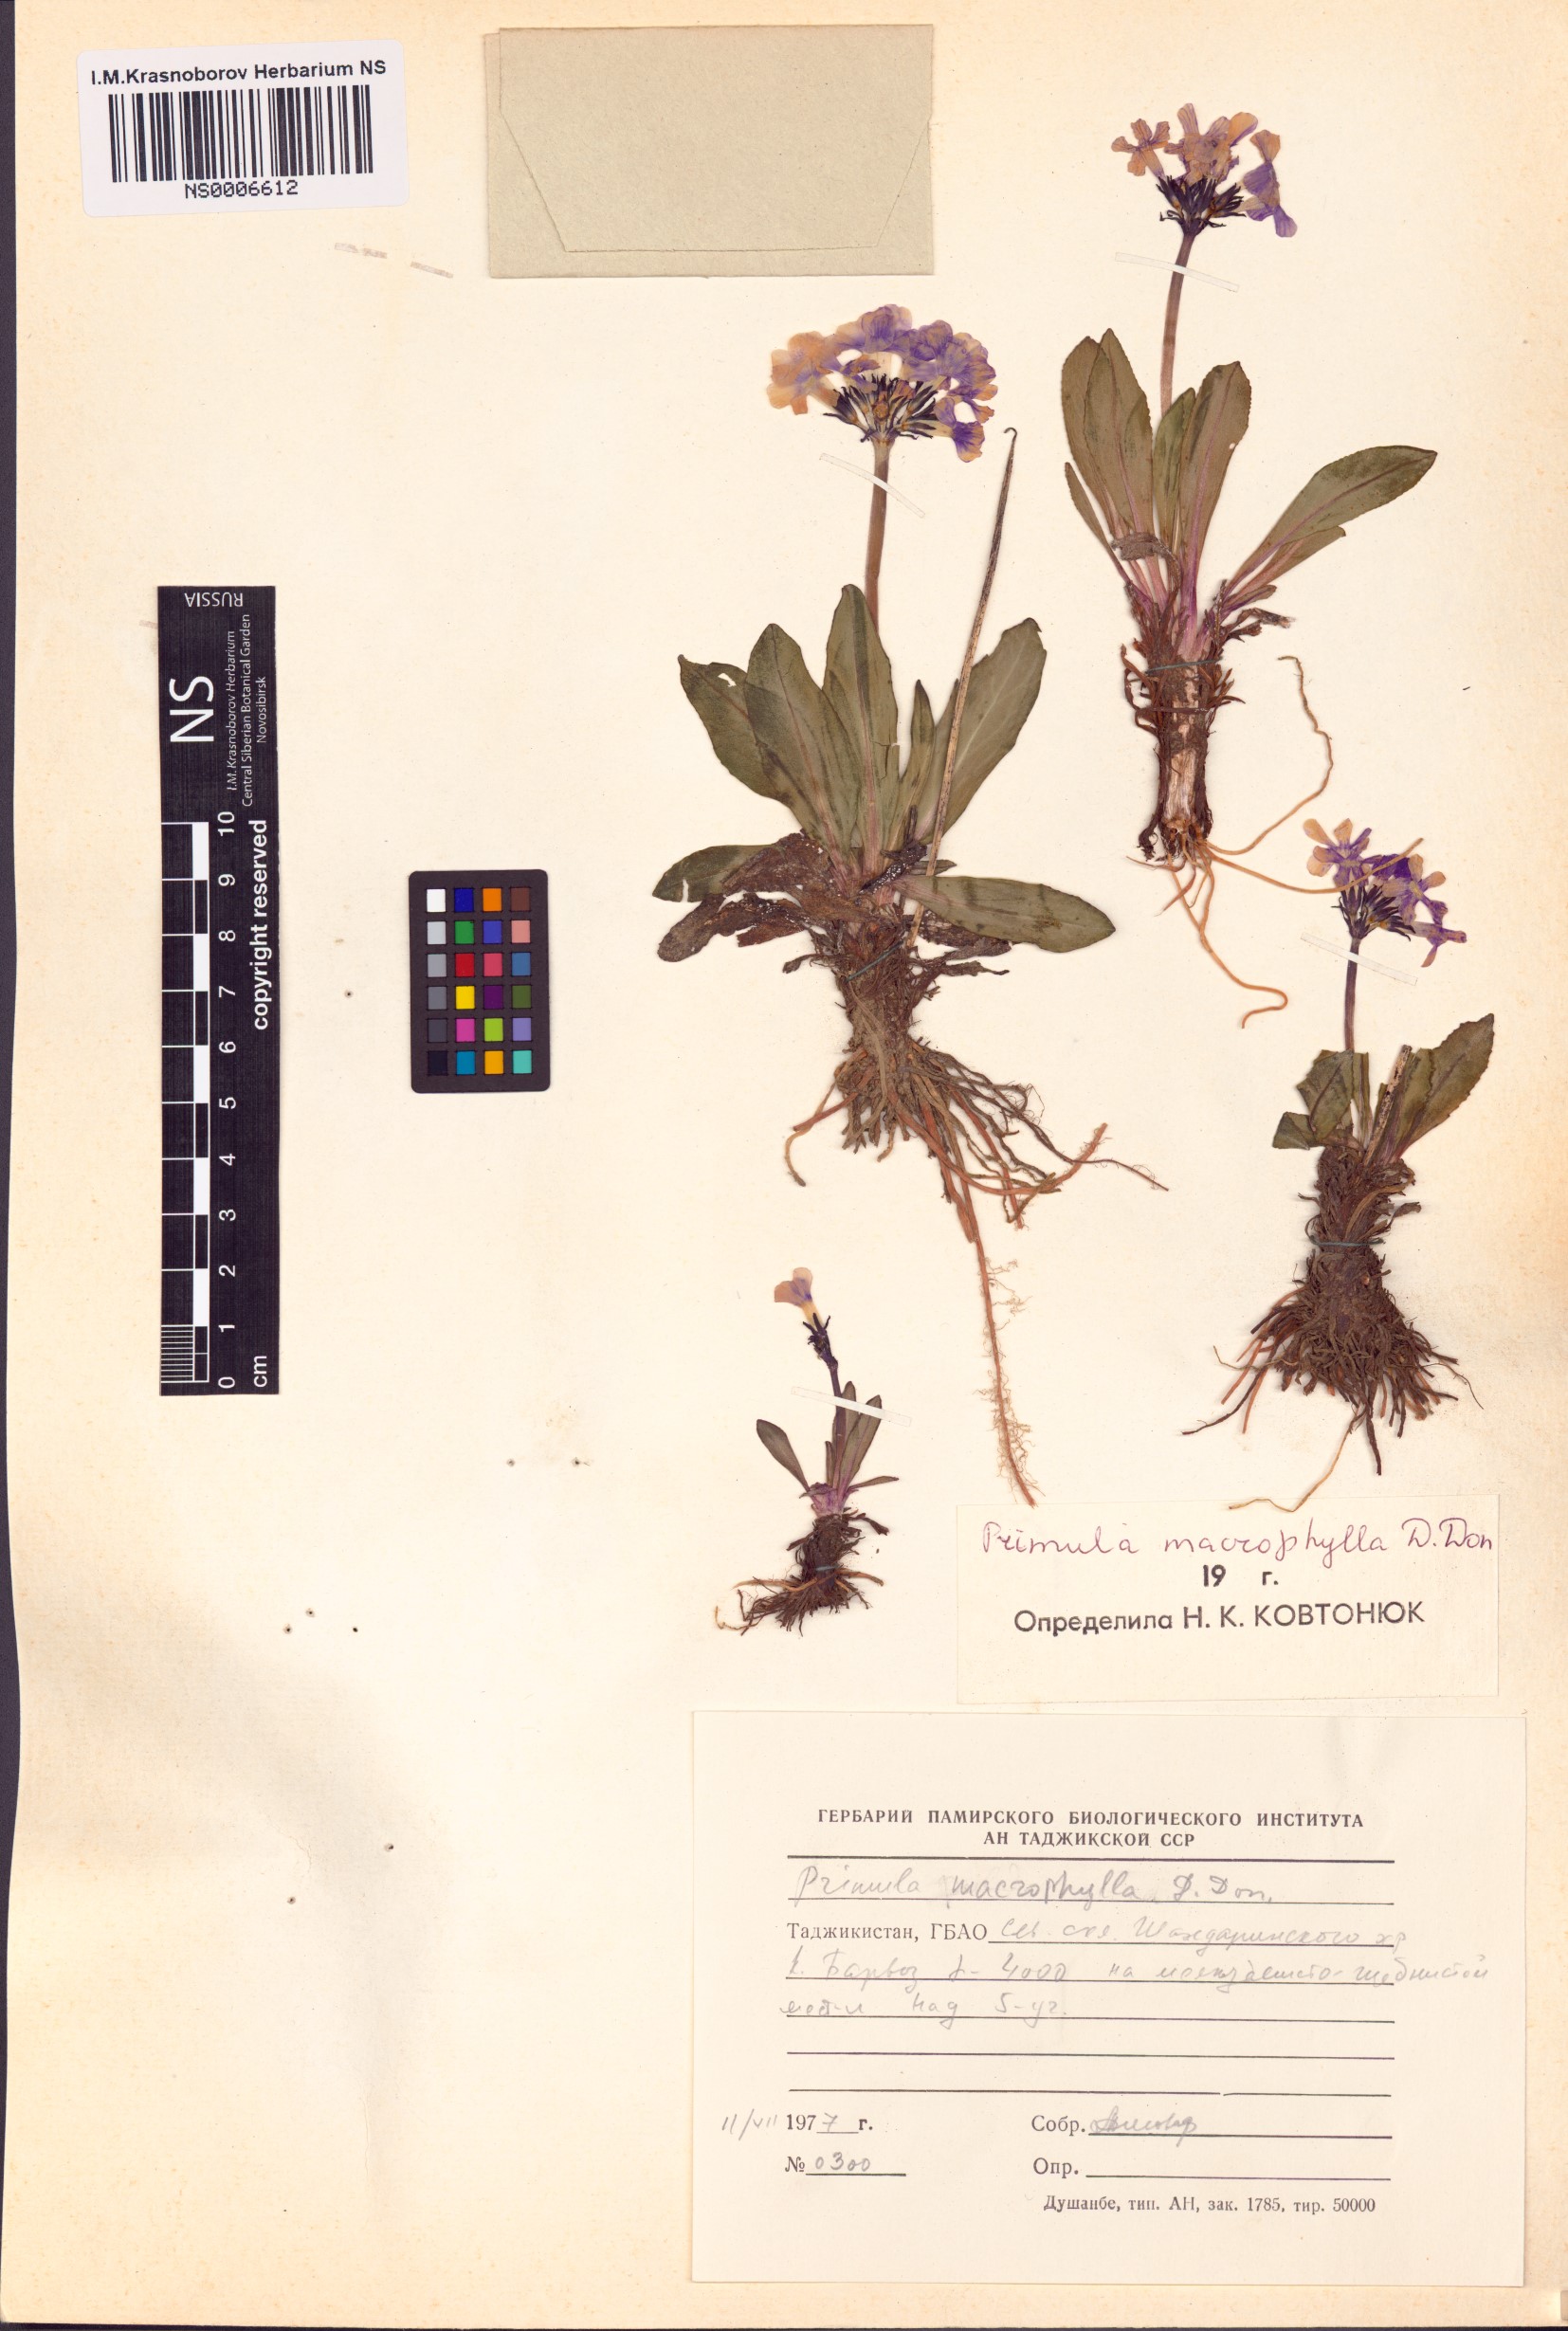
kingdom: Plantae
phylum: Tracheophyta
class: Magnoliopsida
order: Ericales
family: Primulaceae
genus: Primula
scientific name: Primula macrophylla
